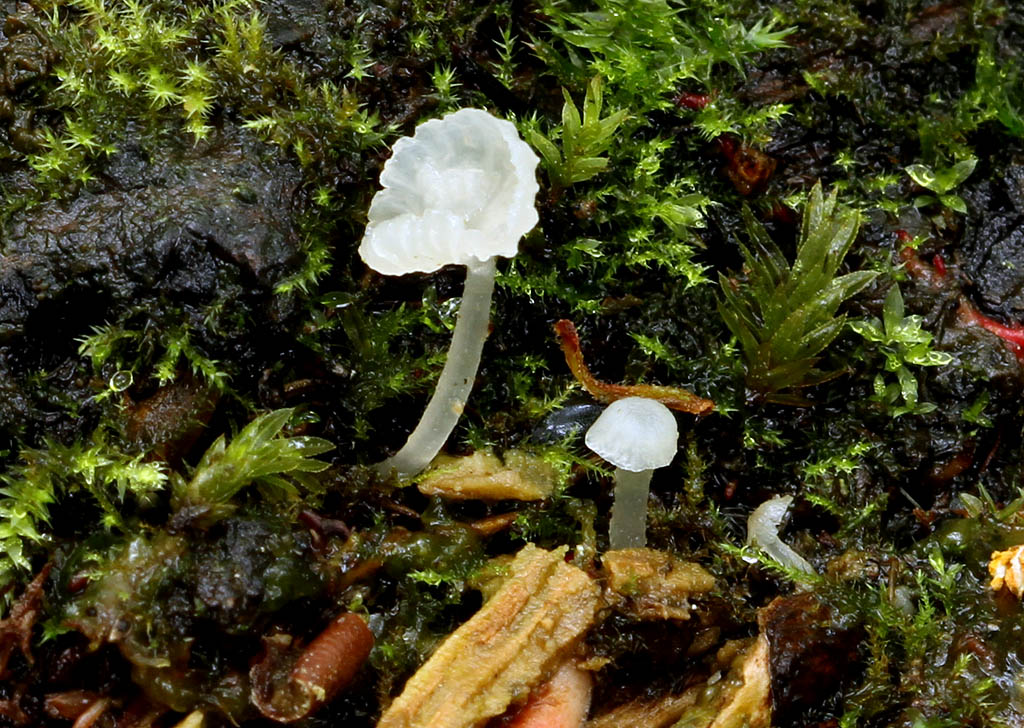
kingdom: Fungi
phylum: Basidiomycota
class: Agaricomycetes
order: Agaricales
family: Tricholomataceae
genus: Delicatula
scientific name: Delicatula integrella
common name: slørhuesvamp
